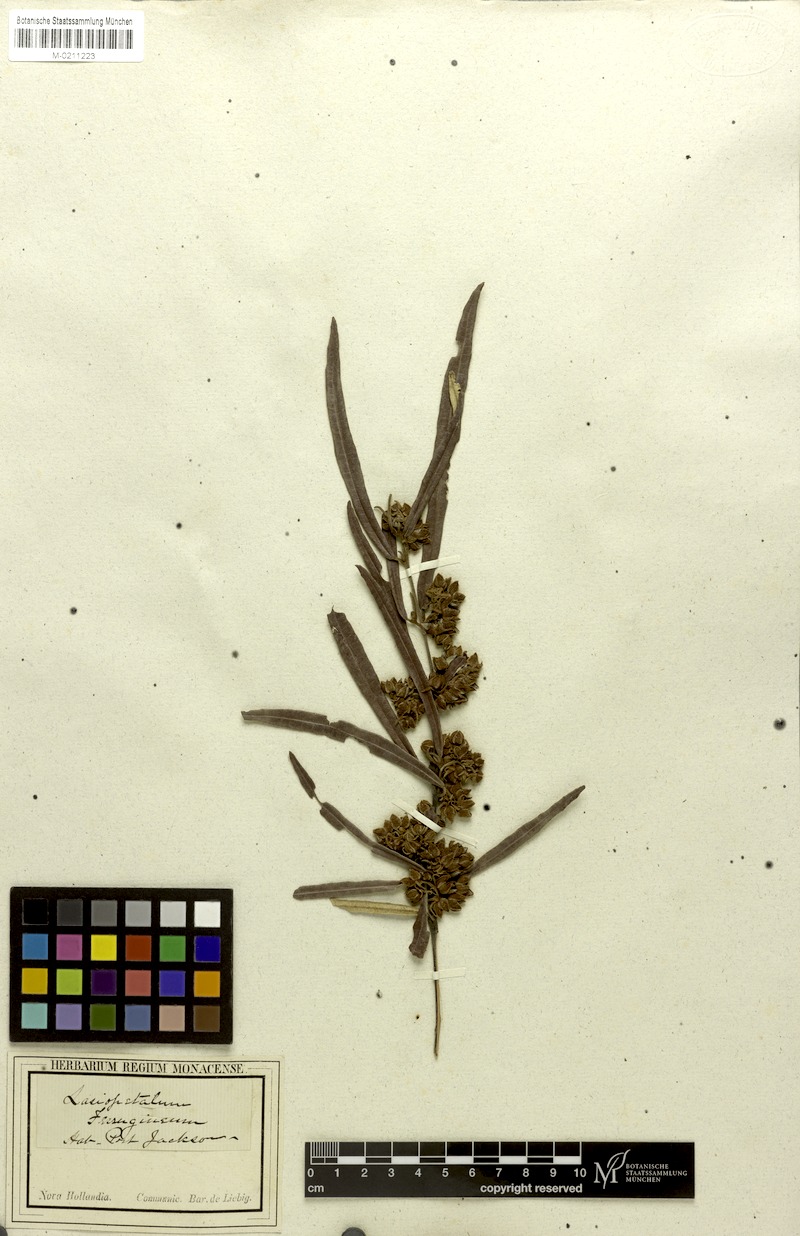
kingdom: Plantae
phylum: Tracheophyta
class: Magnoliopsida
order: Malvales
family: Malvaceae
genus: Lasiopetalum
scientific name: Lasiopetalum ferrugineum
